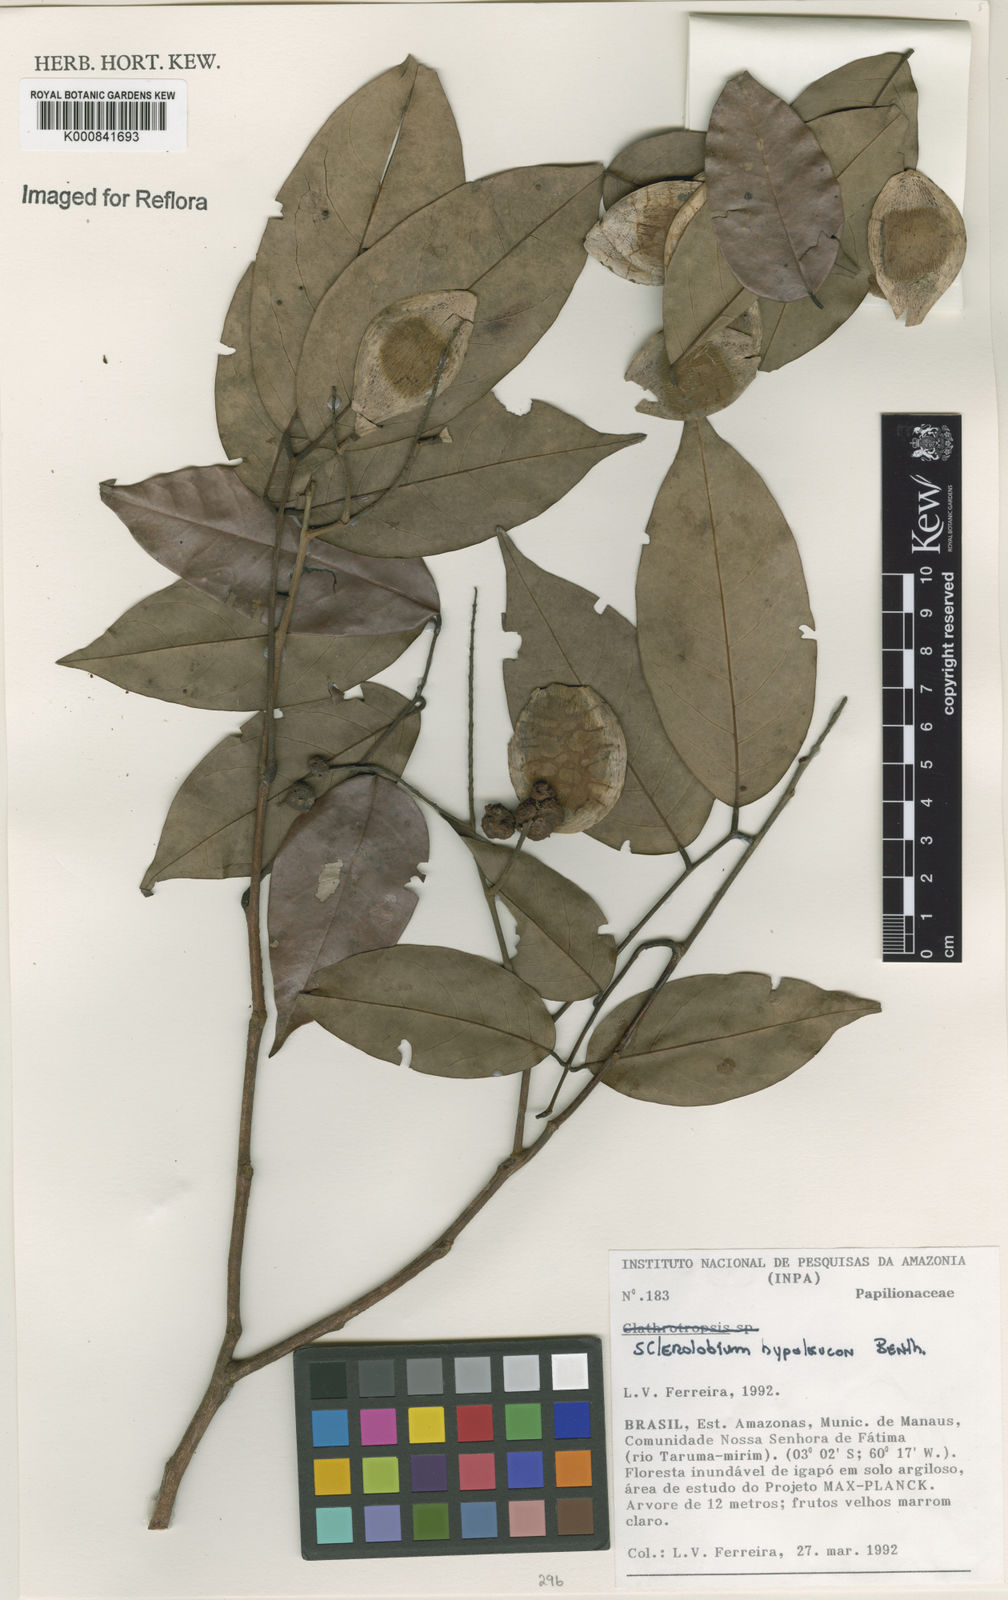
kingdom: Plantae
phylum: Tracheophyta
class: Magnoliopsida
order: Fabales
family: Fabaceae
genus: Tachigali
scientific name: Tachigali hypoleuca
